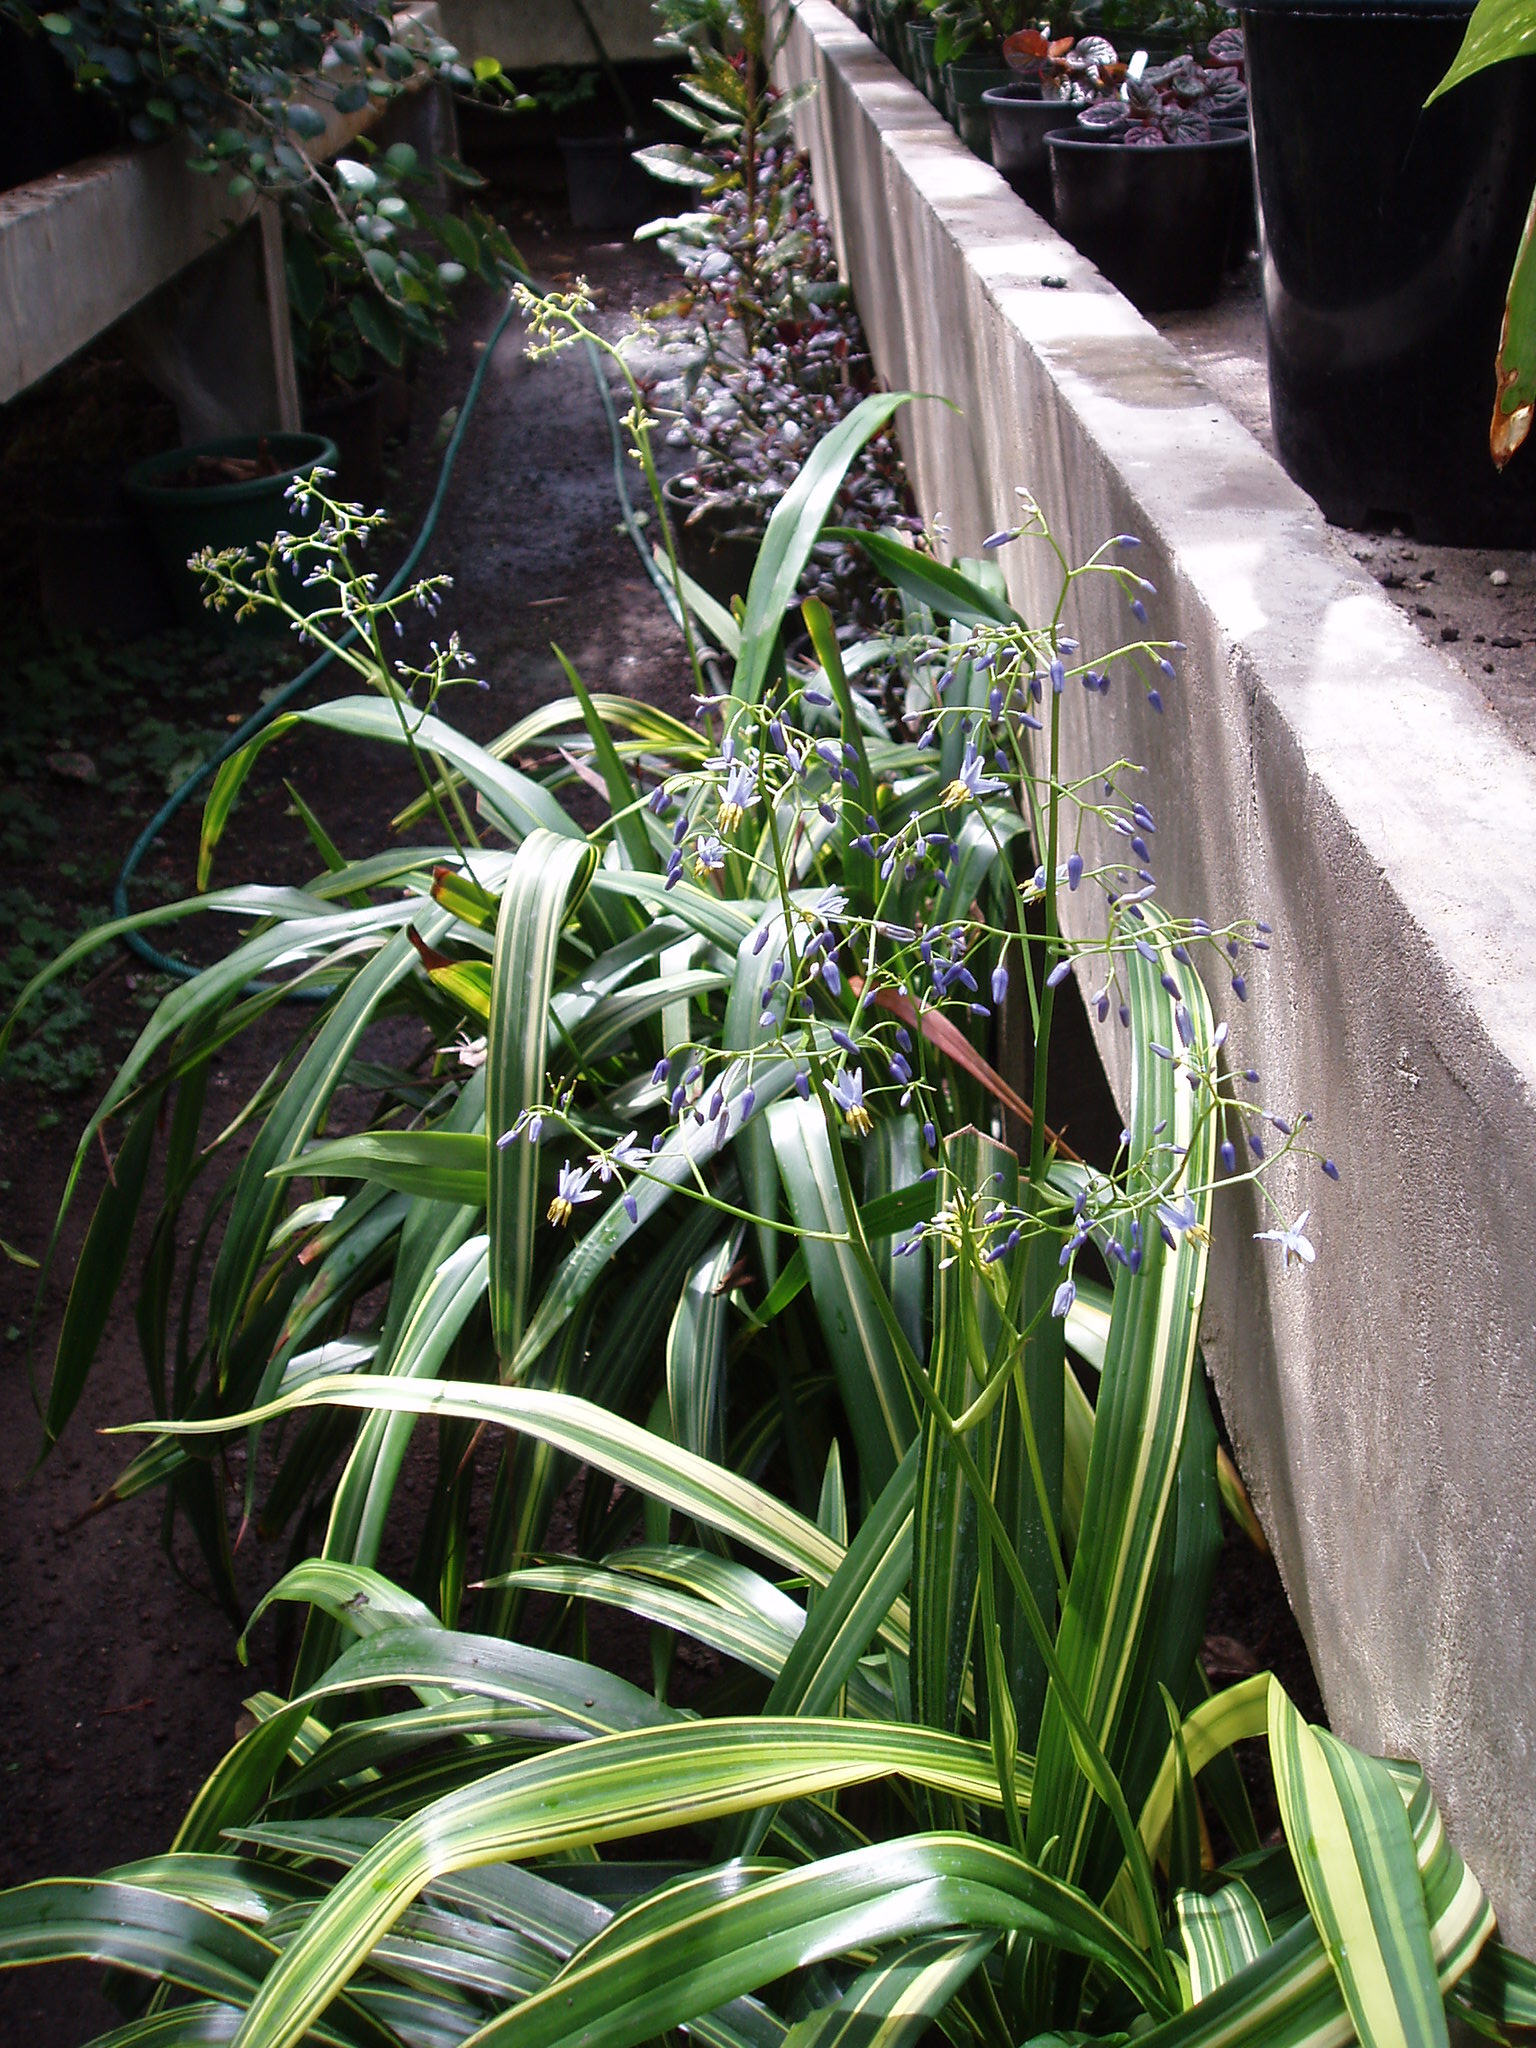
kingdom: Plantae
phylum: Tracheophyta
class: Liliopsida
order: Asparagales
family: Asphodelaceae
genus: Dianella
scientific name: Dianella nigra
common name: New zealand-blueberry
